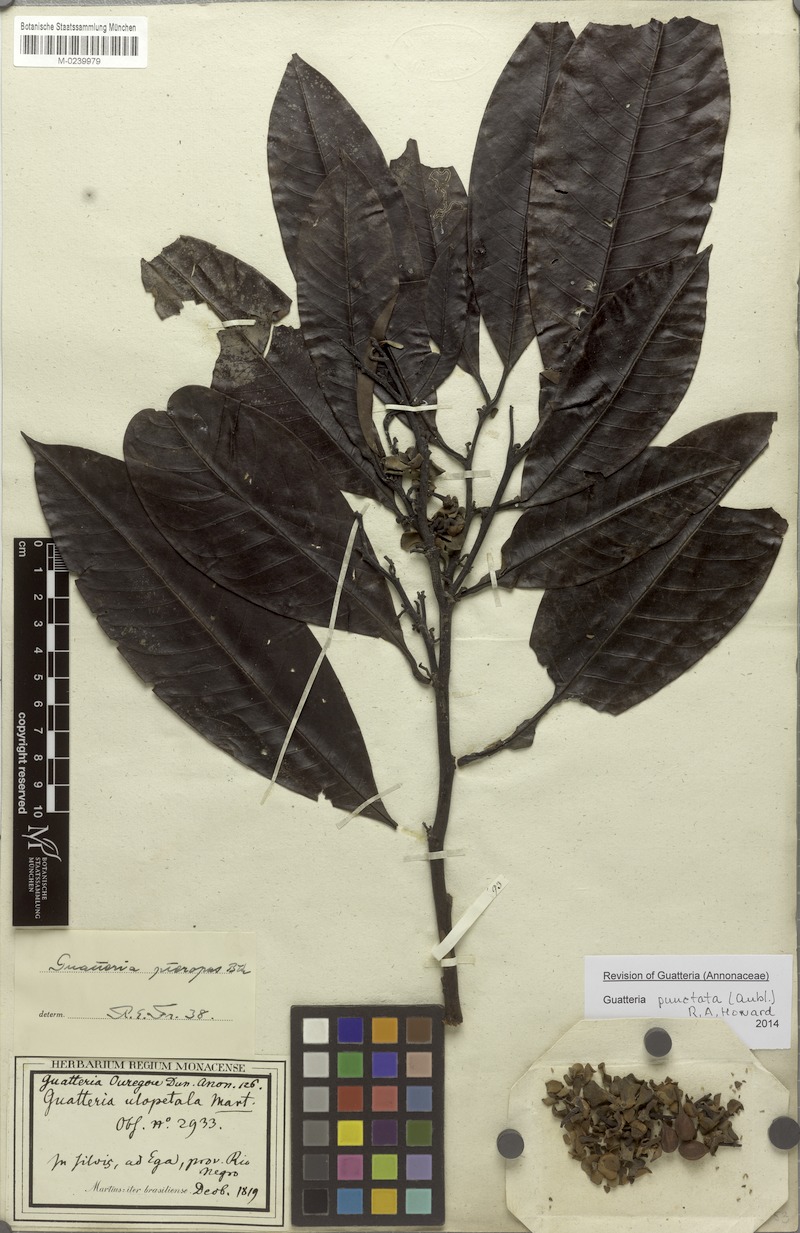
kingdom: Plantae
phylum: Tracheophyta
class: Magnoliopsida
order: Magnoliales
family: Annonaceae
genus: Guatteria
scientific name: Guatteria punctata
